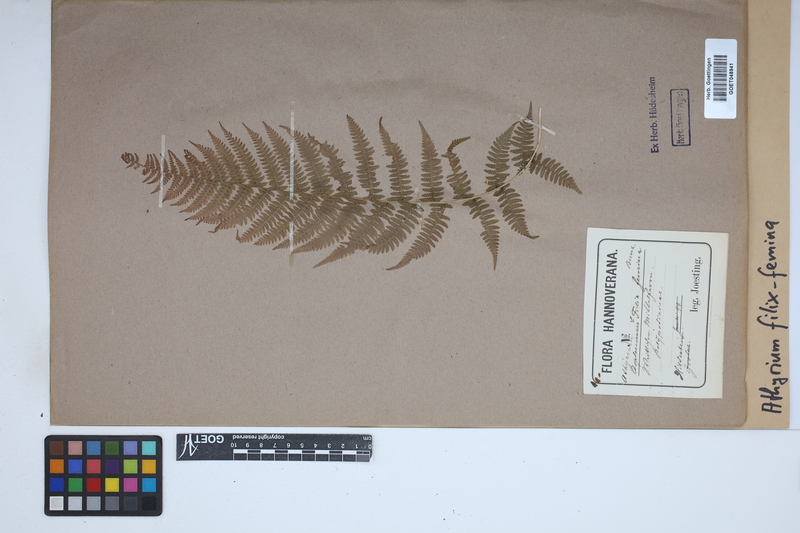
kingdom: Plantae
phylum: Tracheophyta
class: Polypodiopsida
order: Polypodiales
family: Athyriaceae
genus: Athyrium
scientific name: Athyrium filix-femina
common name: Lady fern
